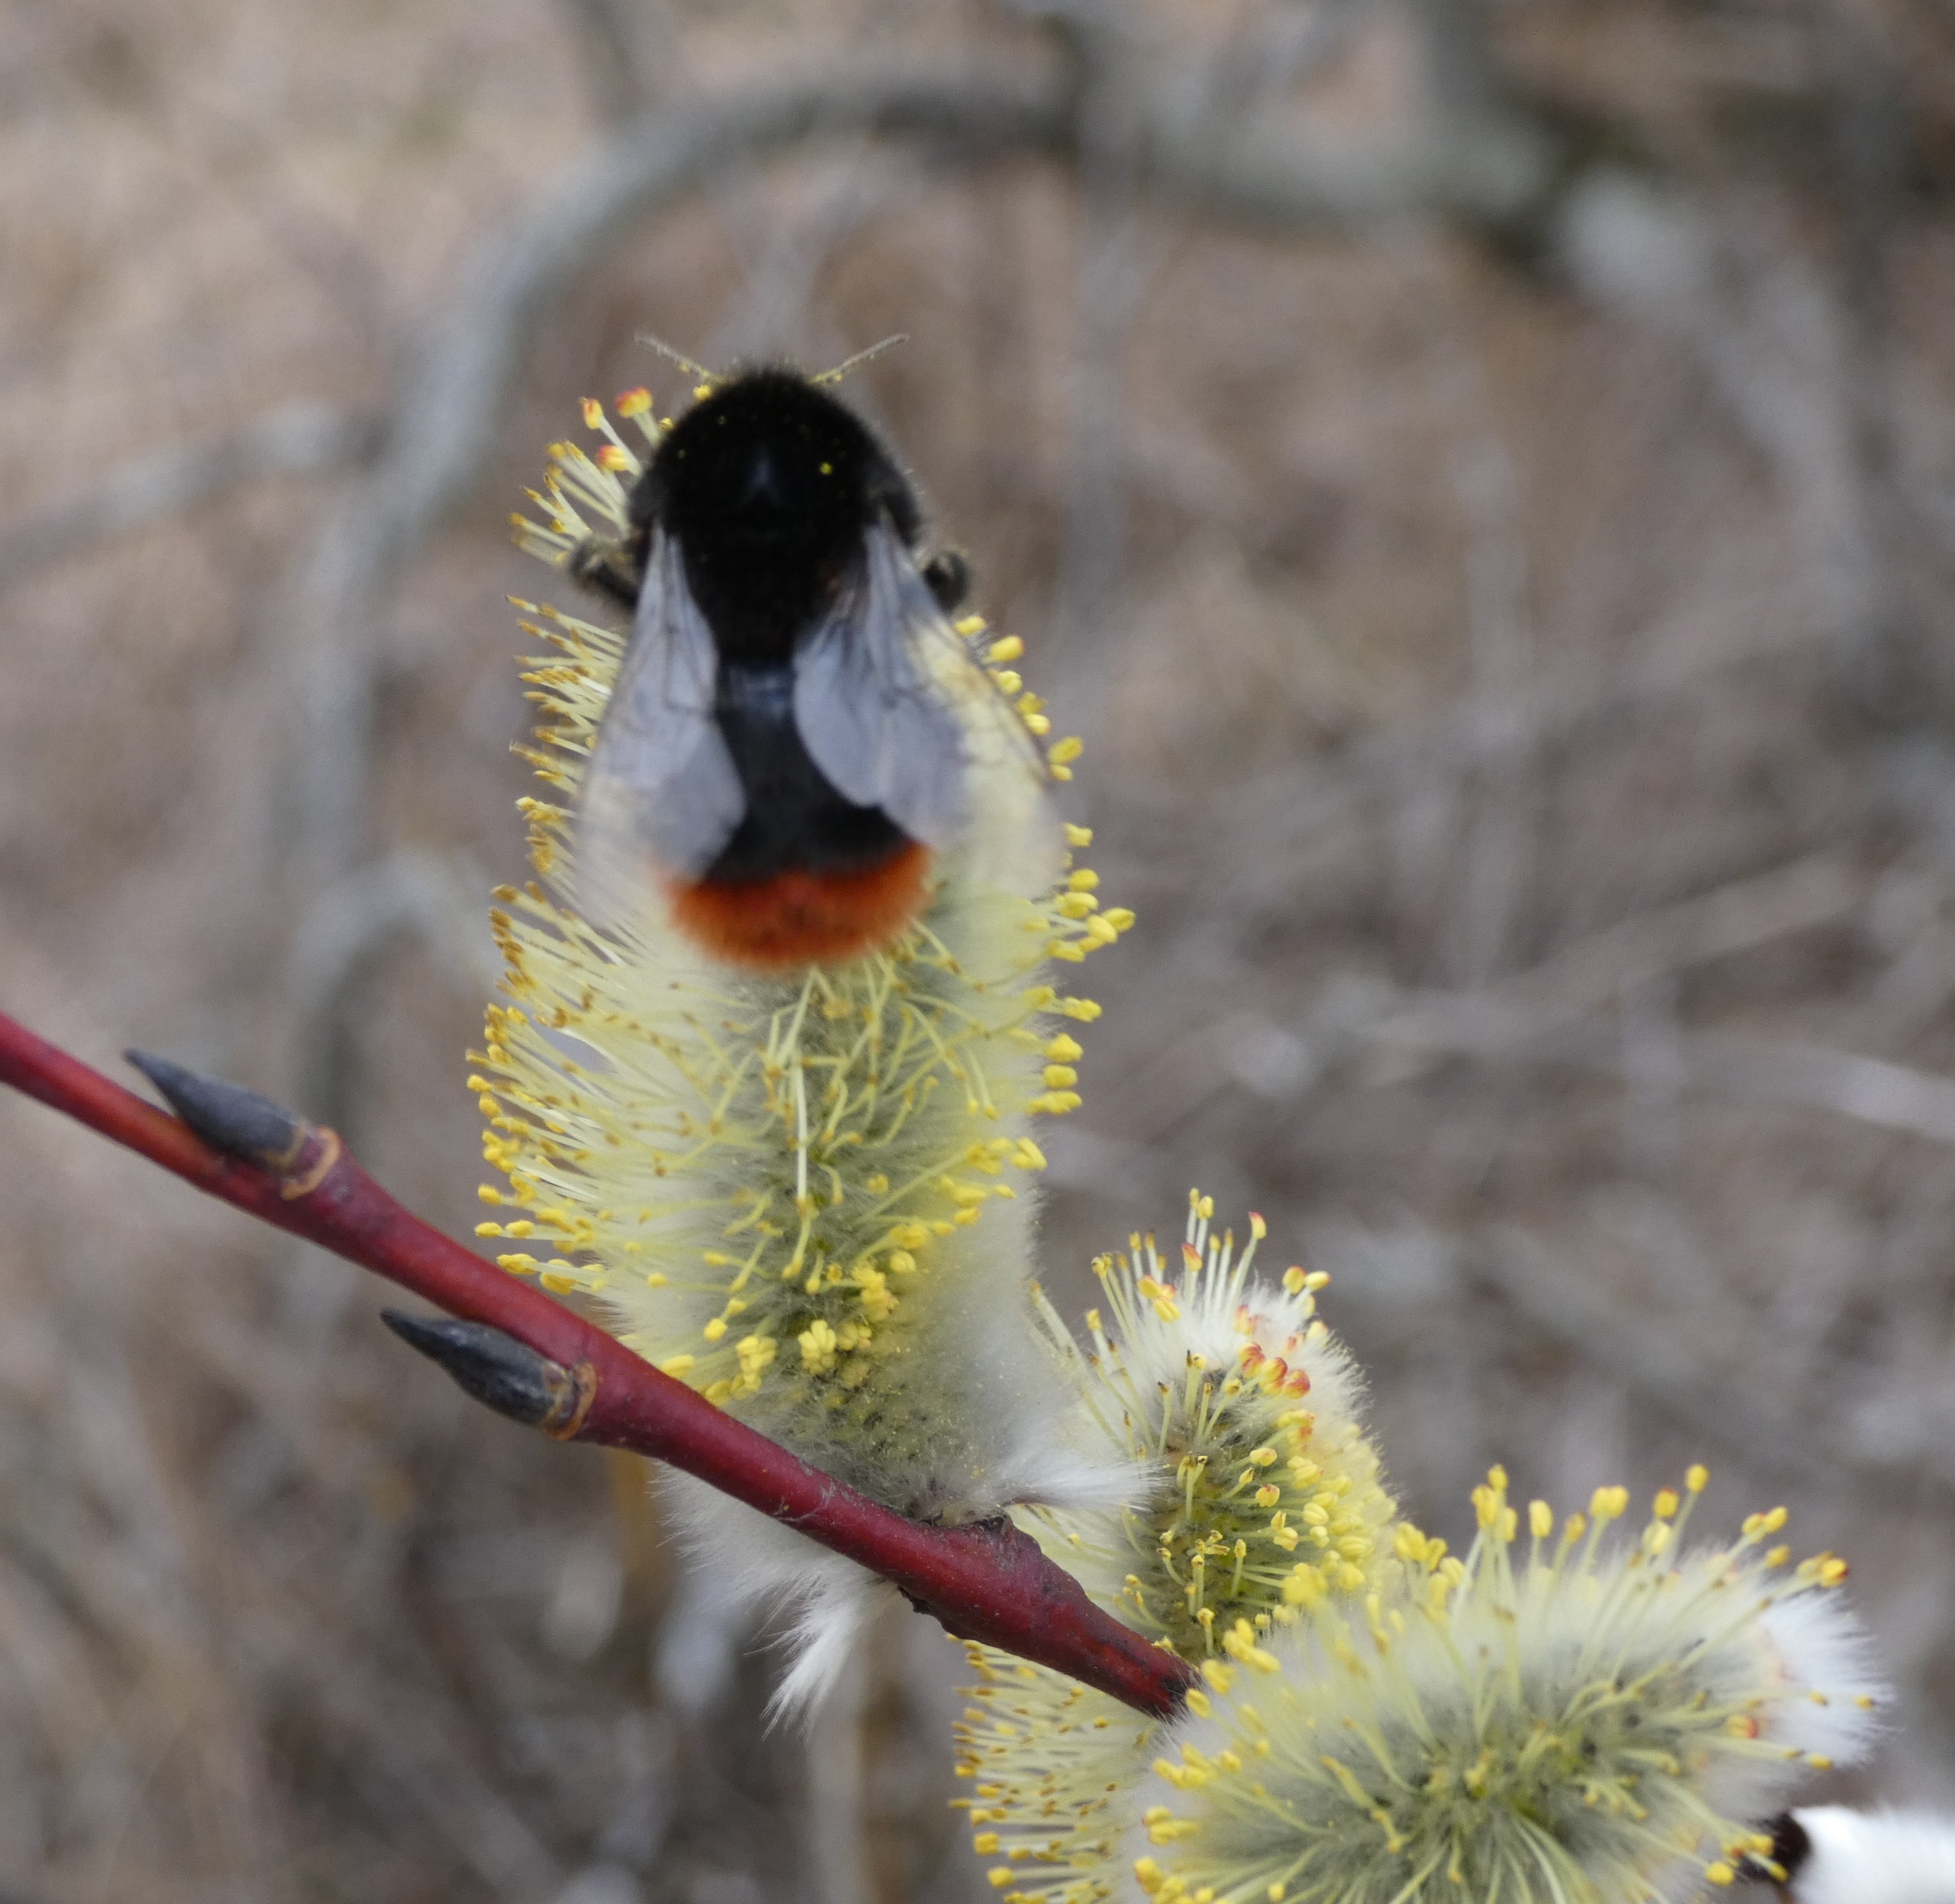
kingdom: Animalia
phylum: Arthropoda
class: Insecta
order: Hymenoptera
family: Apidae
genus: Bombus
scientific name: Bombus lapidarius
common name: Stenhumle
